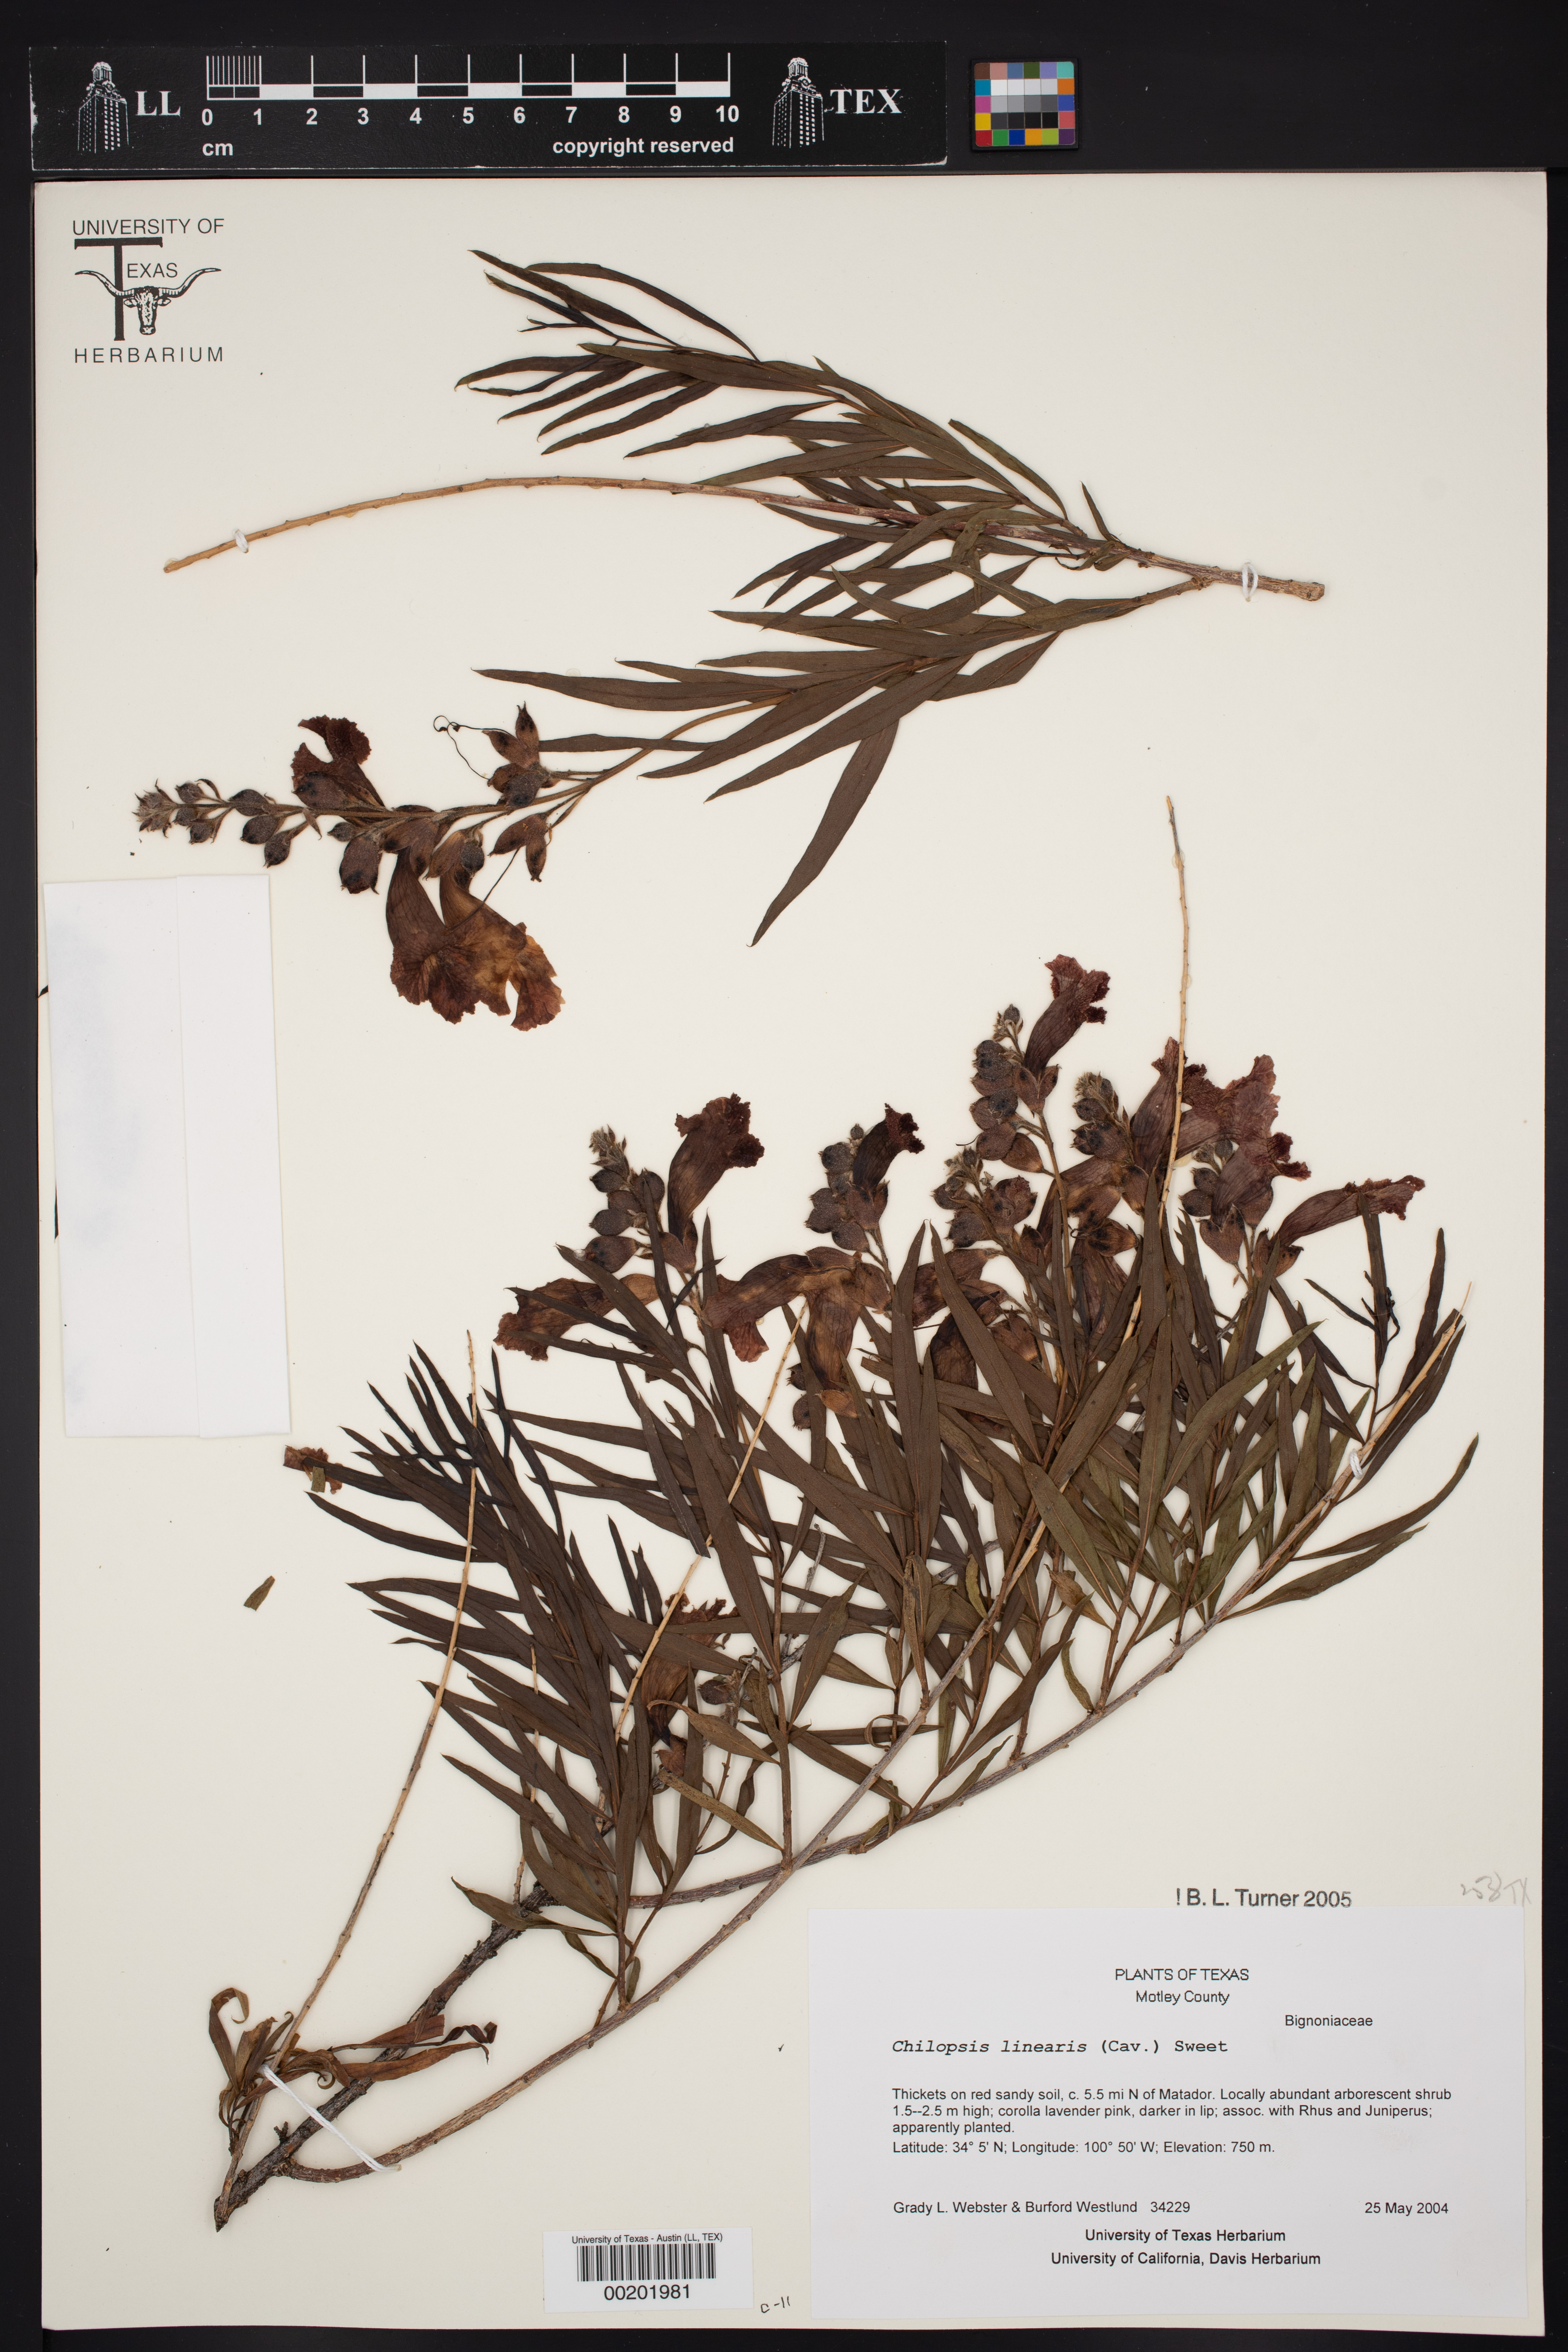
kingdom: Plantae
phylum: Tracheophyta
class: Magnoliopsida
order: Lamiales
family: Bignoniaceae
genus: Chilopsis
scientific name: Chilopsis linearis
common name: Desert-willow
